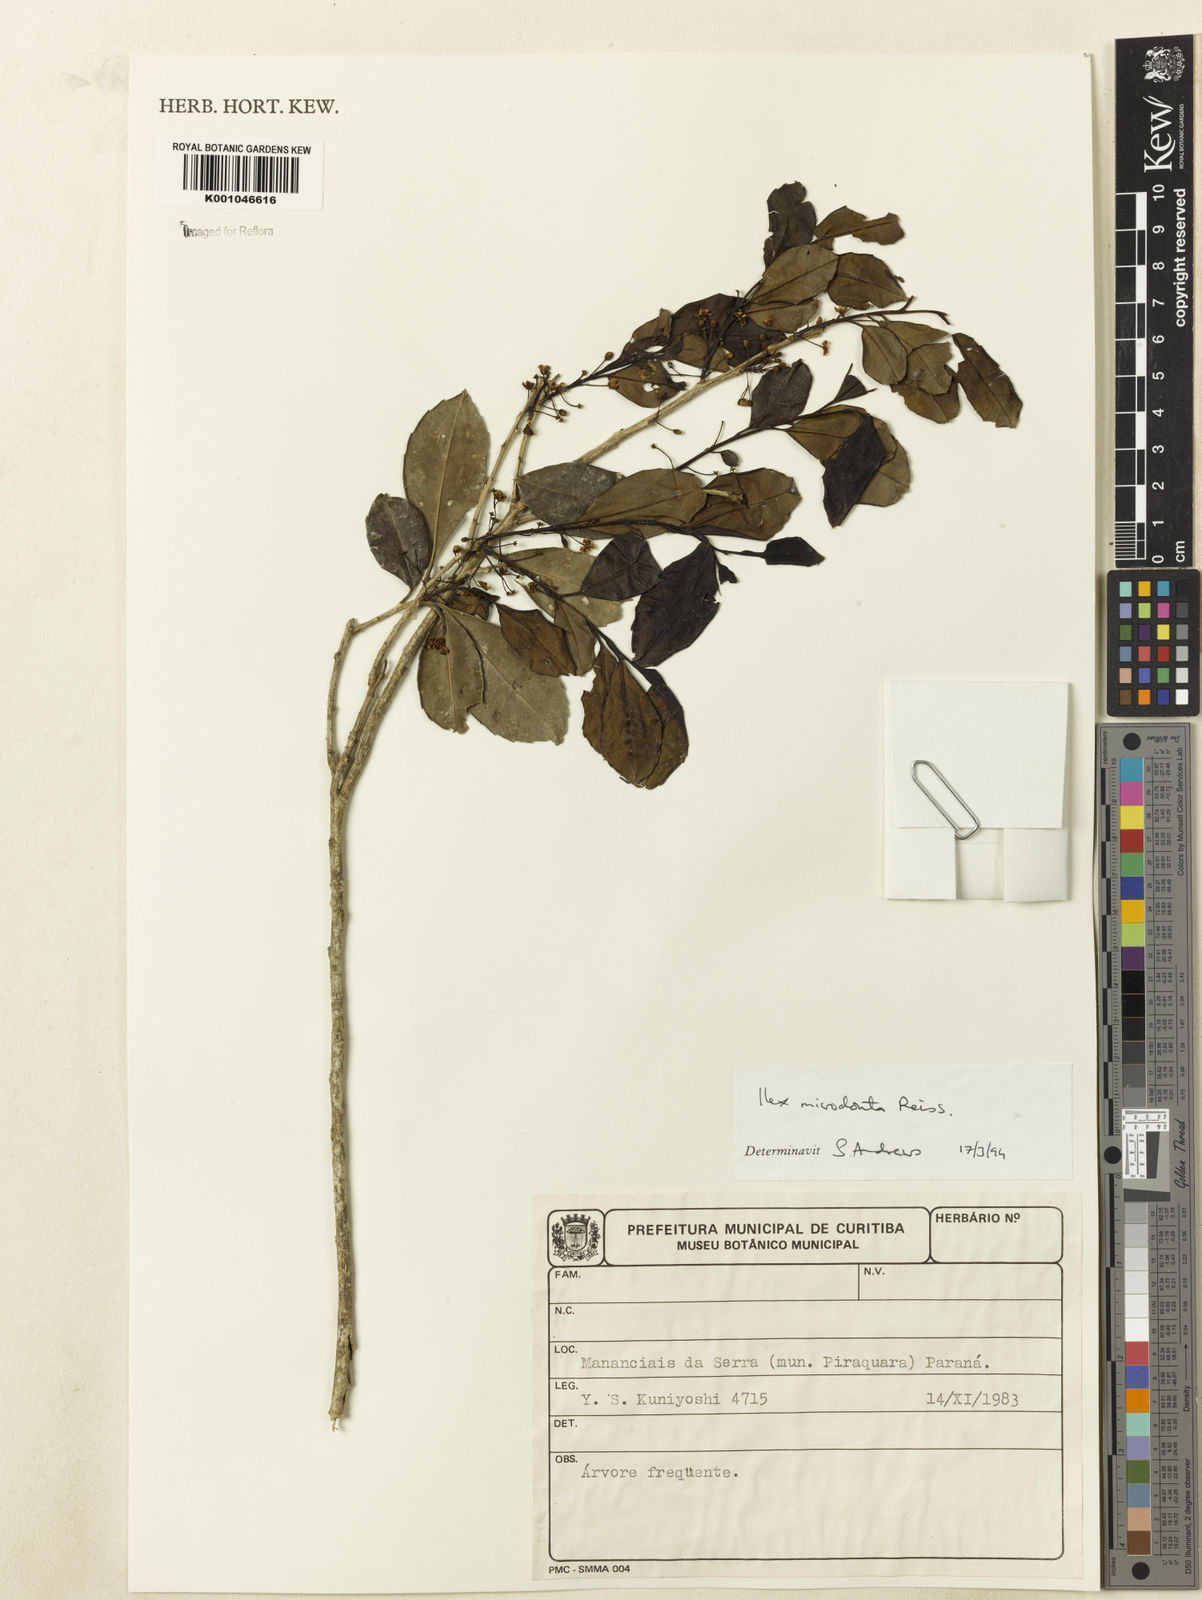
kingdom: Plantae
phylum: Tracheophyta
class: Magnoliopsida
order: Aquifoliales
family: Aquifoliaceae
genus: Ilex
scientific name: Ilex microdonta
